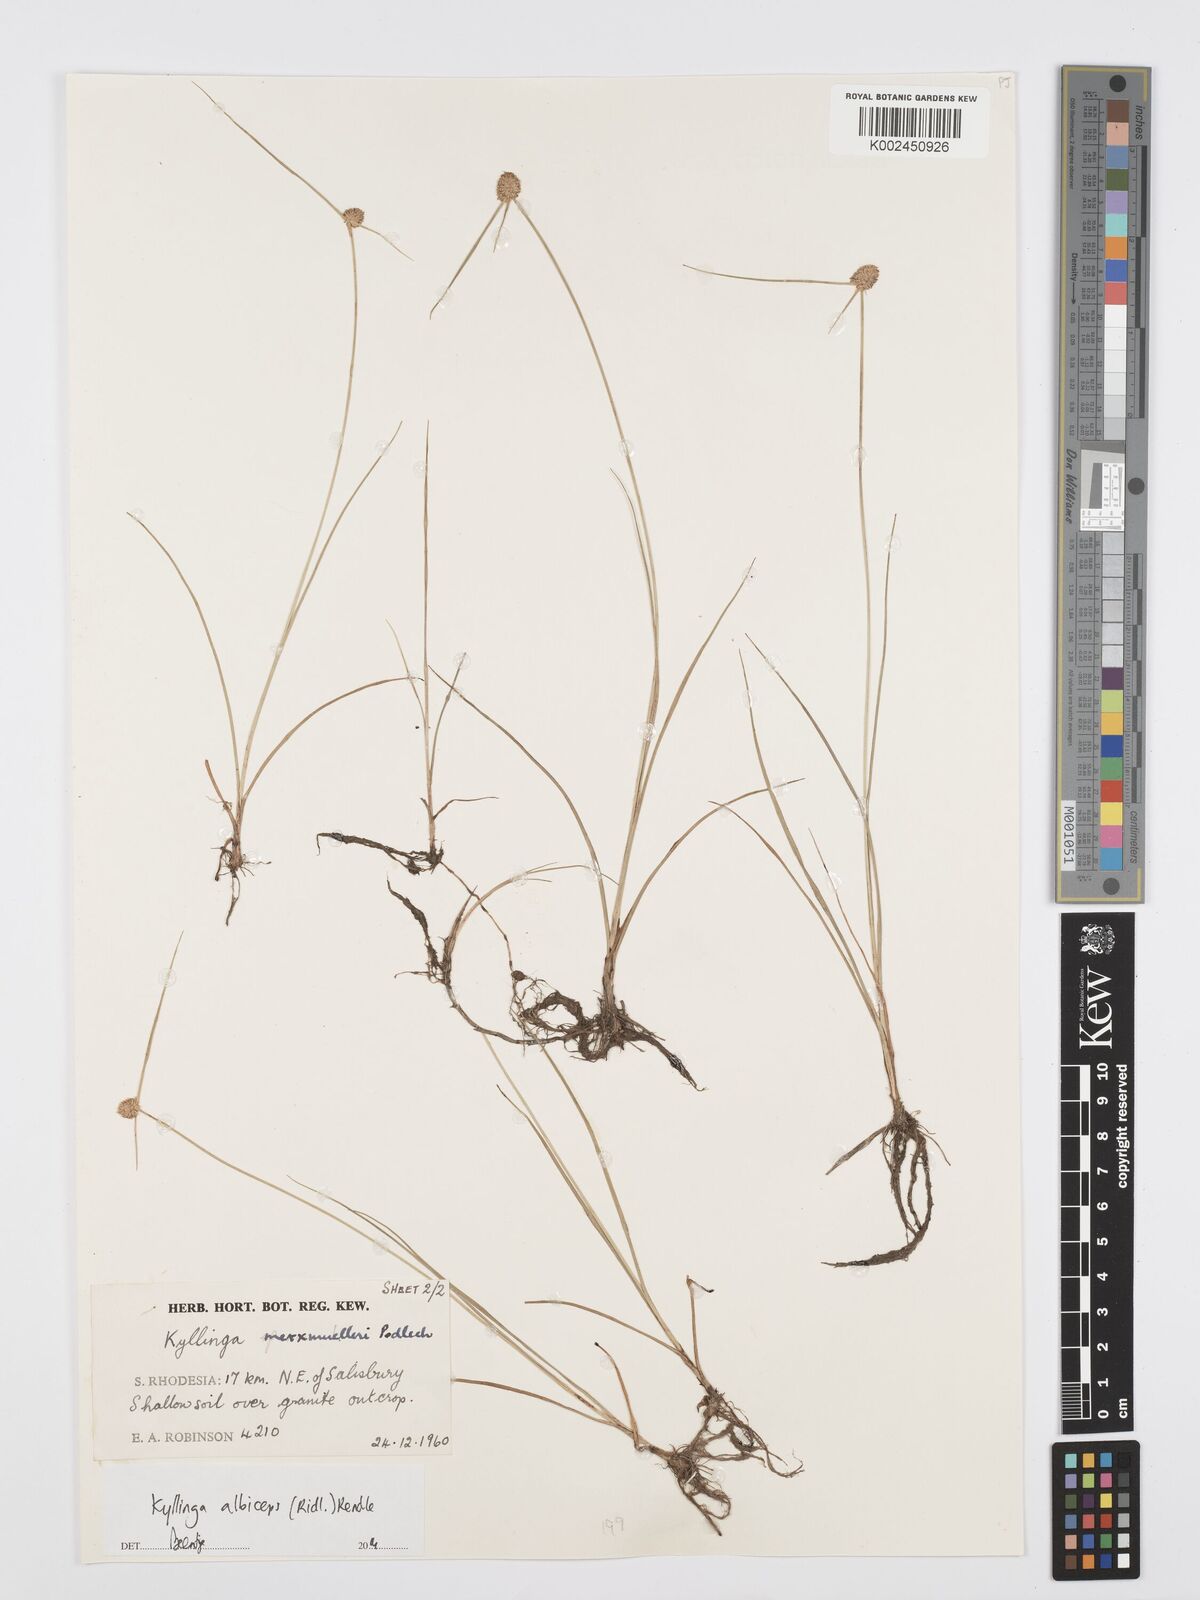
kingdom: Plantae
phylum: Tracheophyta
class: Liliopsida
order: Poales
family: Cyperaceae
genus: Cyperus
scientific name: Cyperus albiceps
